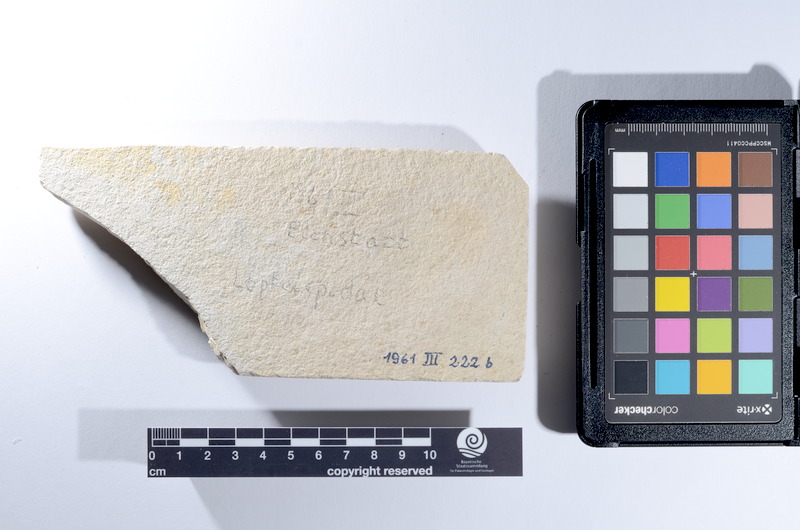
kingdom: Animalia
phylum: Chordata
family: Ascalaboidae
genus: Tharsis
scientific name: Tharsis dubius
